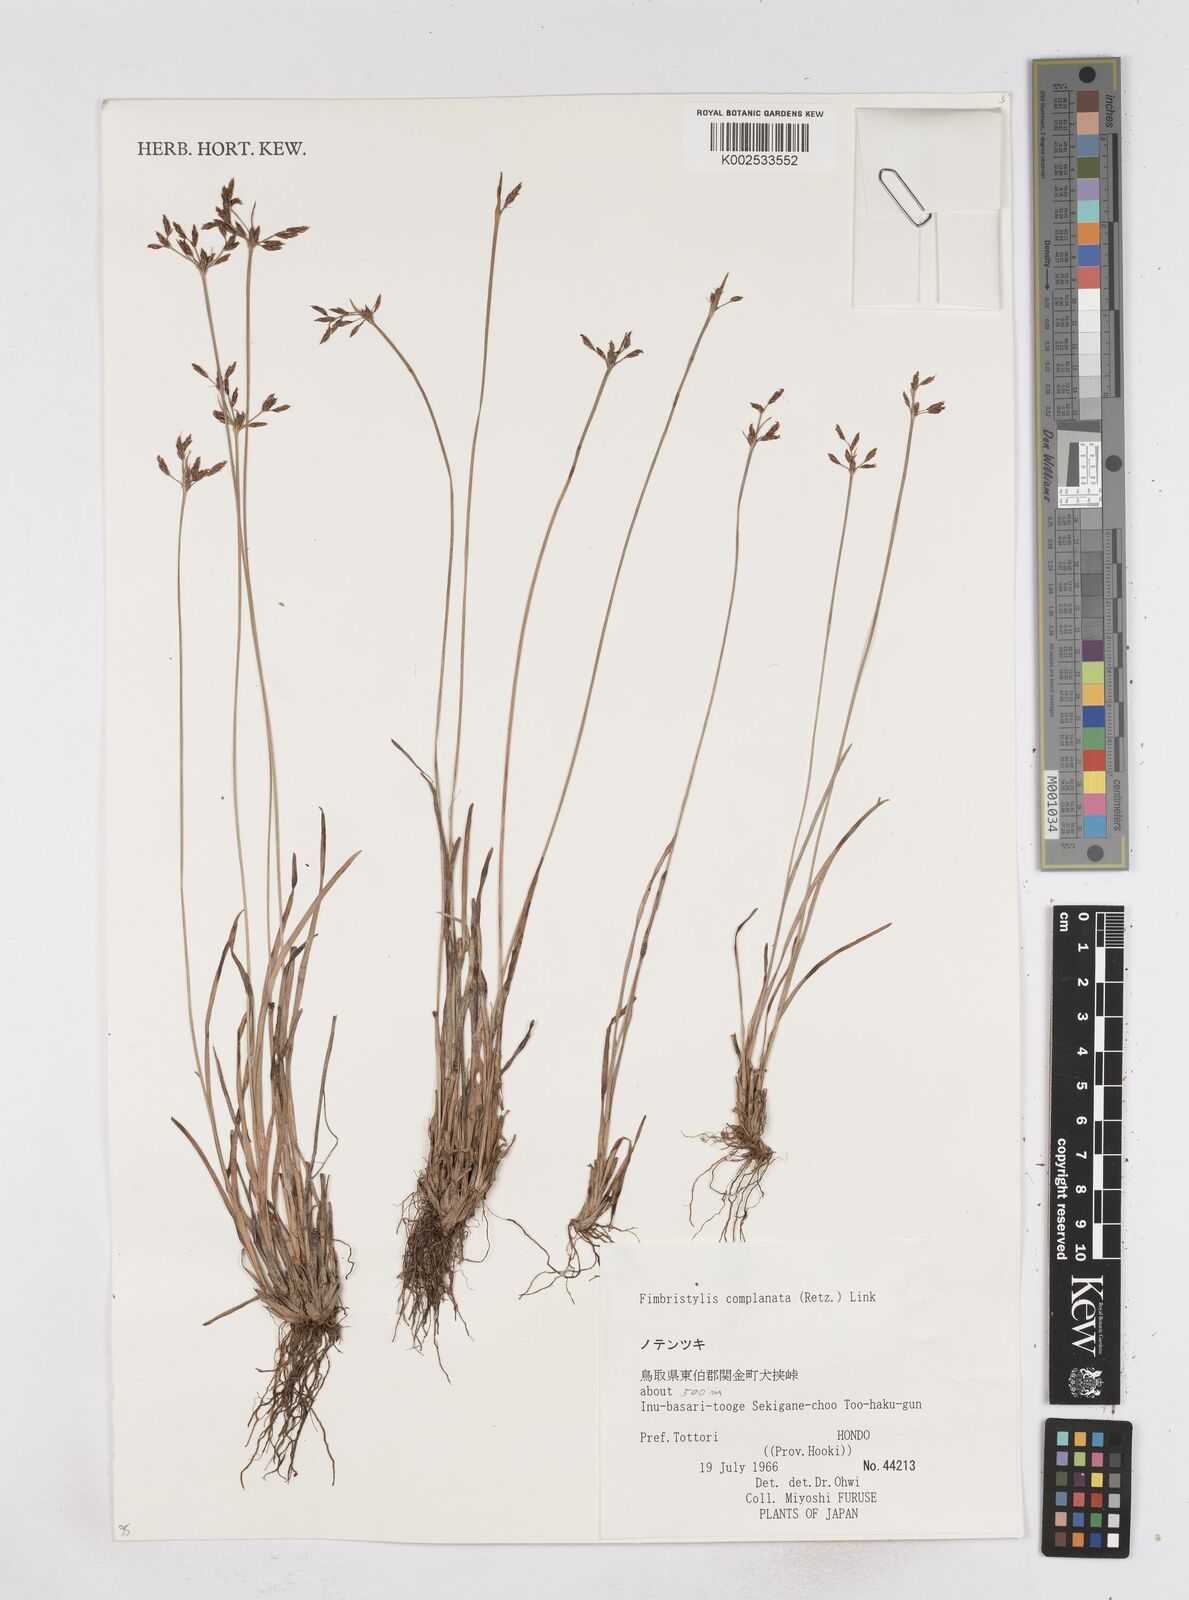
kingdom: Plantae
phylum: Tracheophyta
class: Liliopsida
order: Poales
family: Cyperaceae
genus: Fimbristylis
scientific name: Fimbristylis complanata
